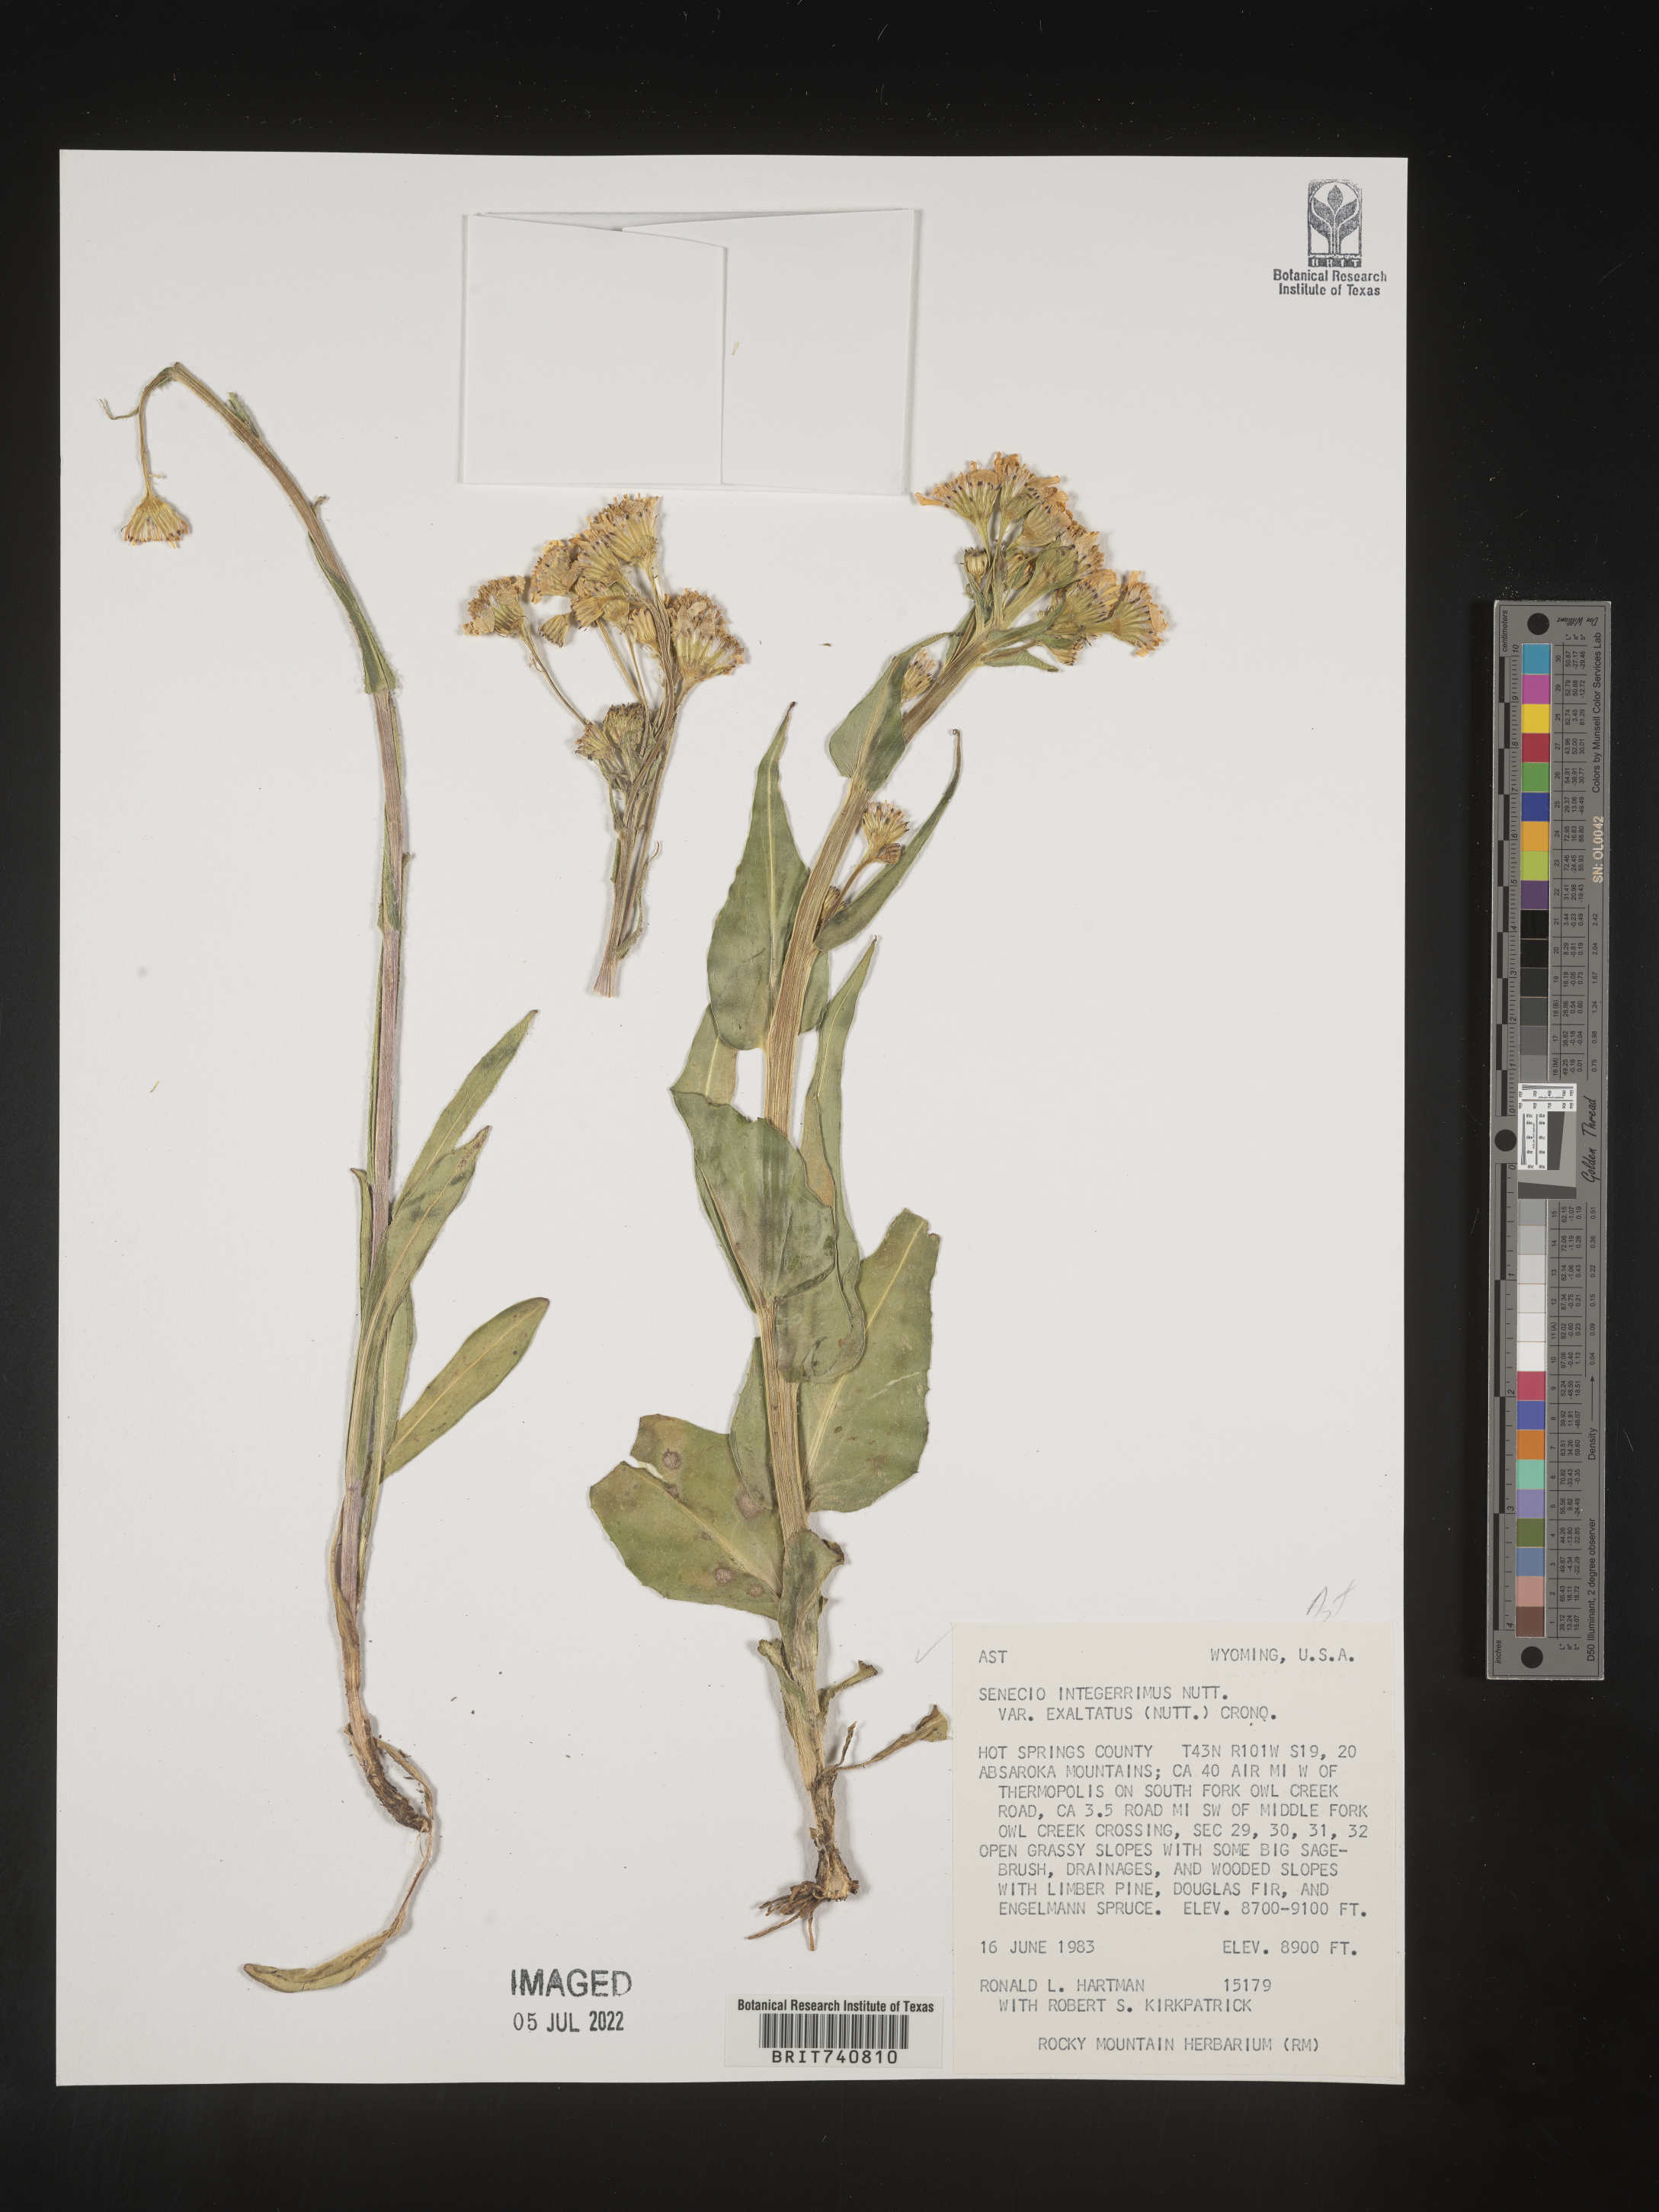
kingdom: Plantae
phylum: Tracheophyta
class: Magnoliopsida
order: Asterales
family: Asteraceae
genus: Senecio
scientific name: Senecio integerrimus
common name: Gaugeplant
